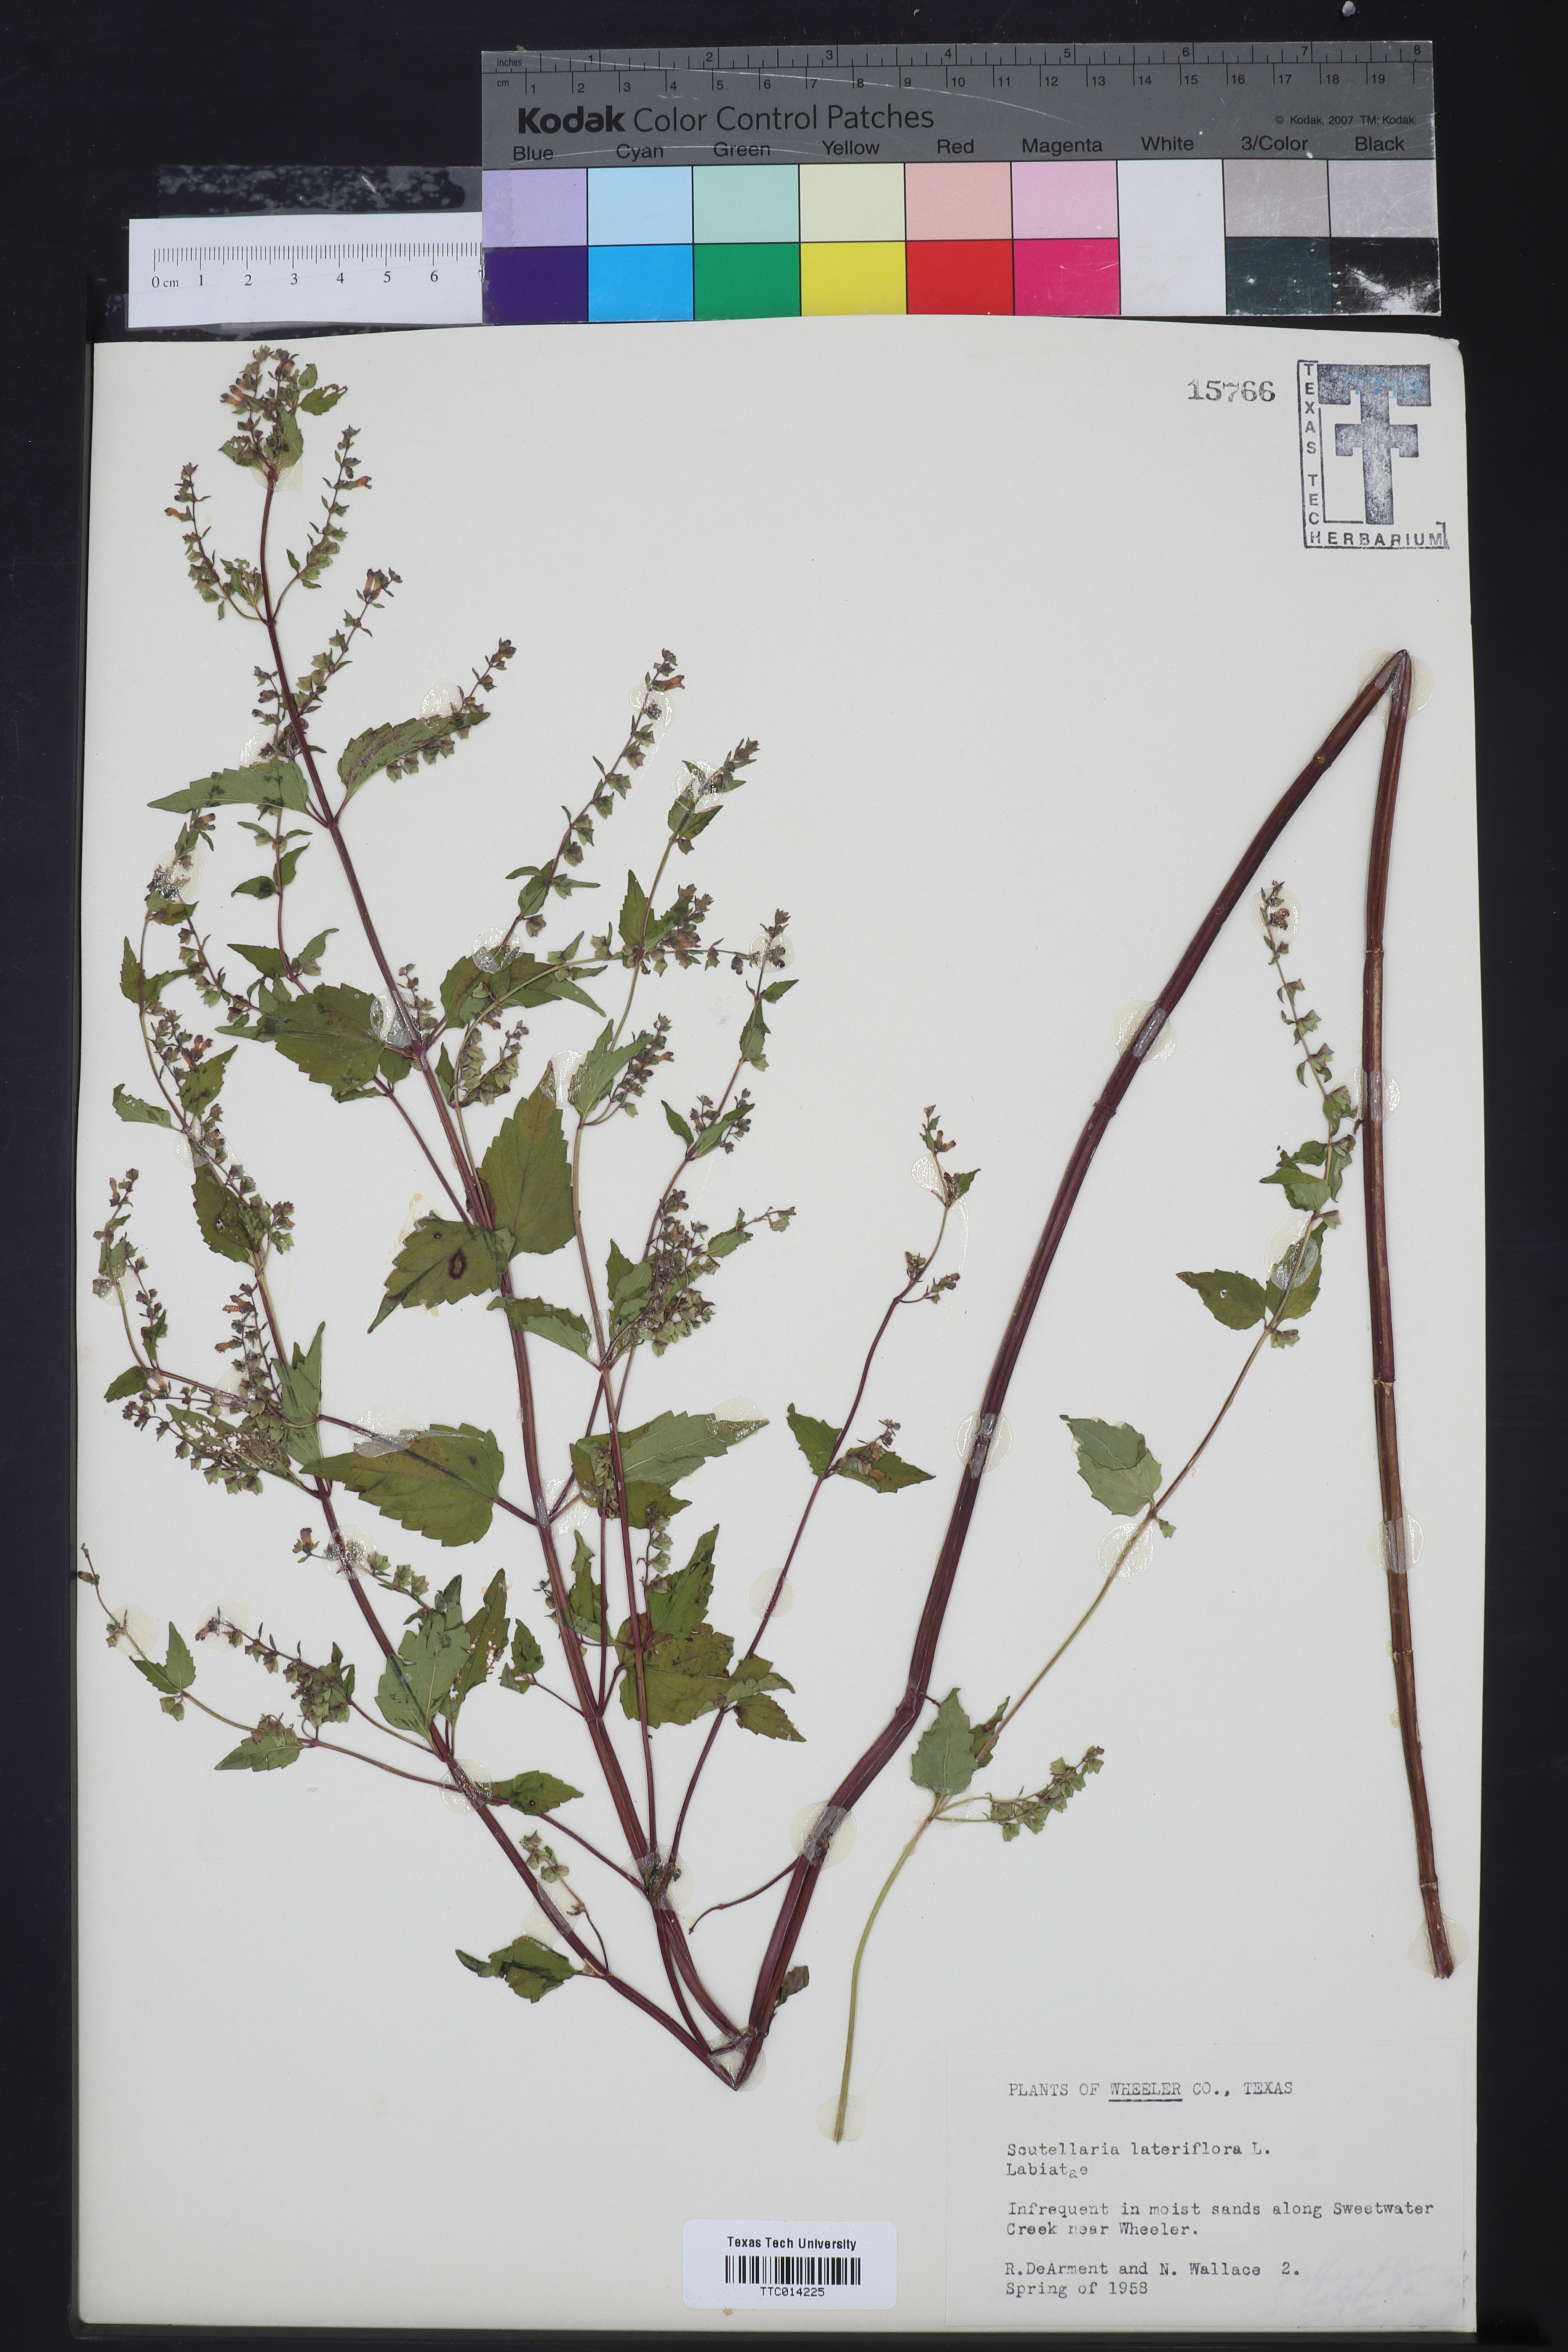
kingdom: Plantae
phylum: Tracheophyta
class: Magnoliopsida
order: Lamiales
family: Lamiaceae
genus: Scutellaria
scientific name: Scutellaria drummondii
